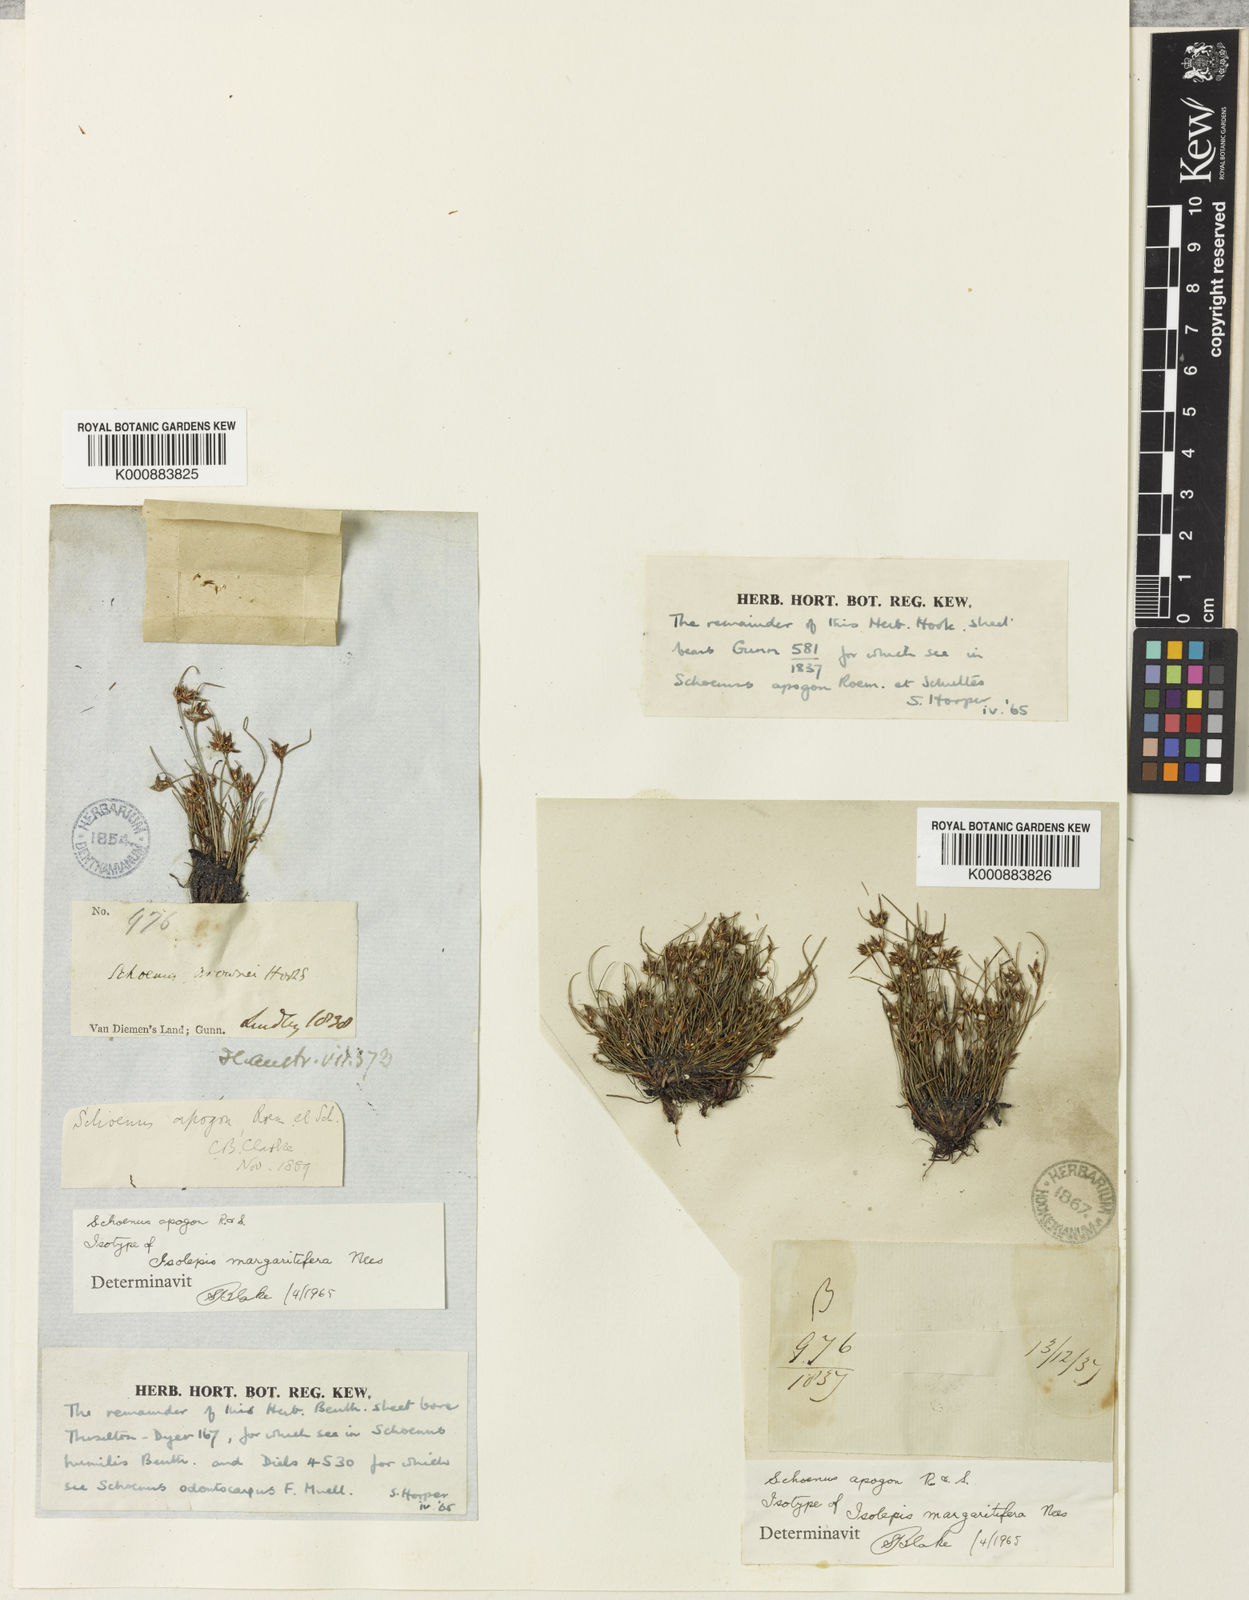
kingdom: Plantae
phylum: Tracheophyta
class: Liliopsida
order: Poales
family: Cyperaceae
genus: Schoenus
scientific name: Schoenus apogon
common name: Smooth bogrush
